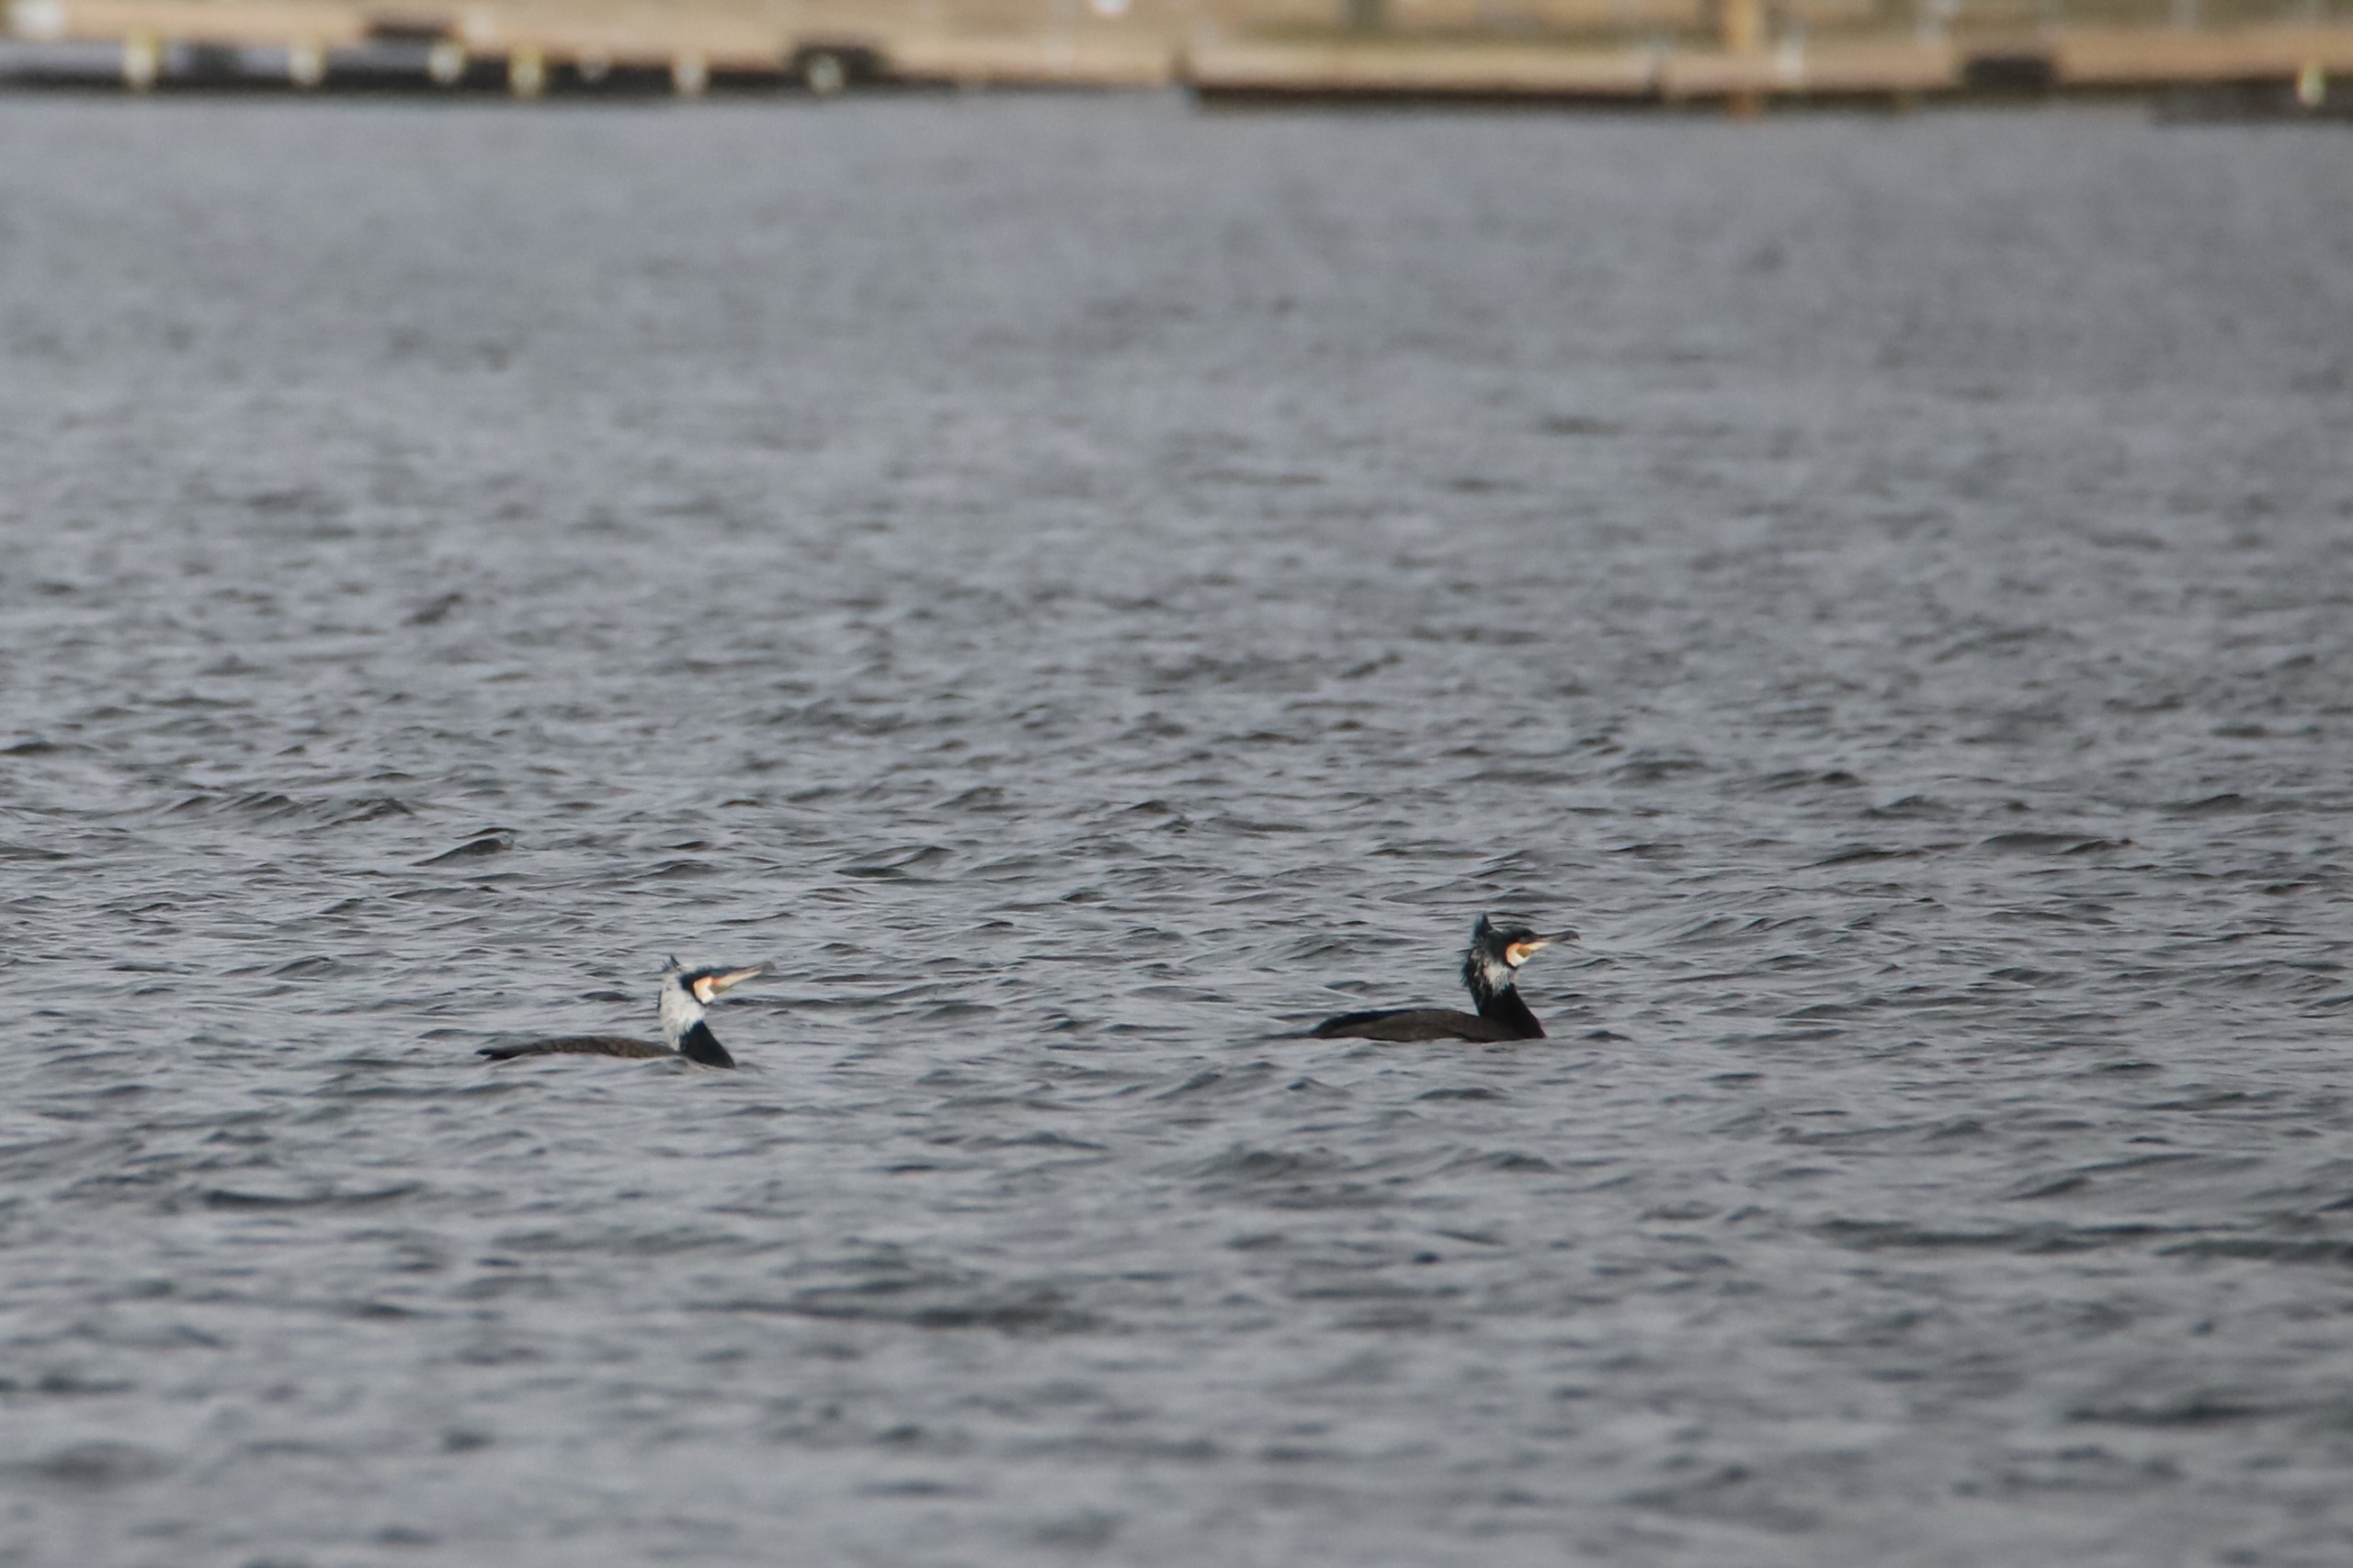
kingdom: Animalia
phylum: Chordata
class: Aves
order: Suliformes
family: Phalacrocoracidae
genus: Phalacrocorax
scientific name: Phalacrocorax carbo
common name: Skarv
